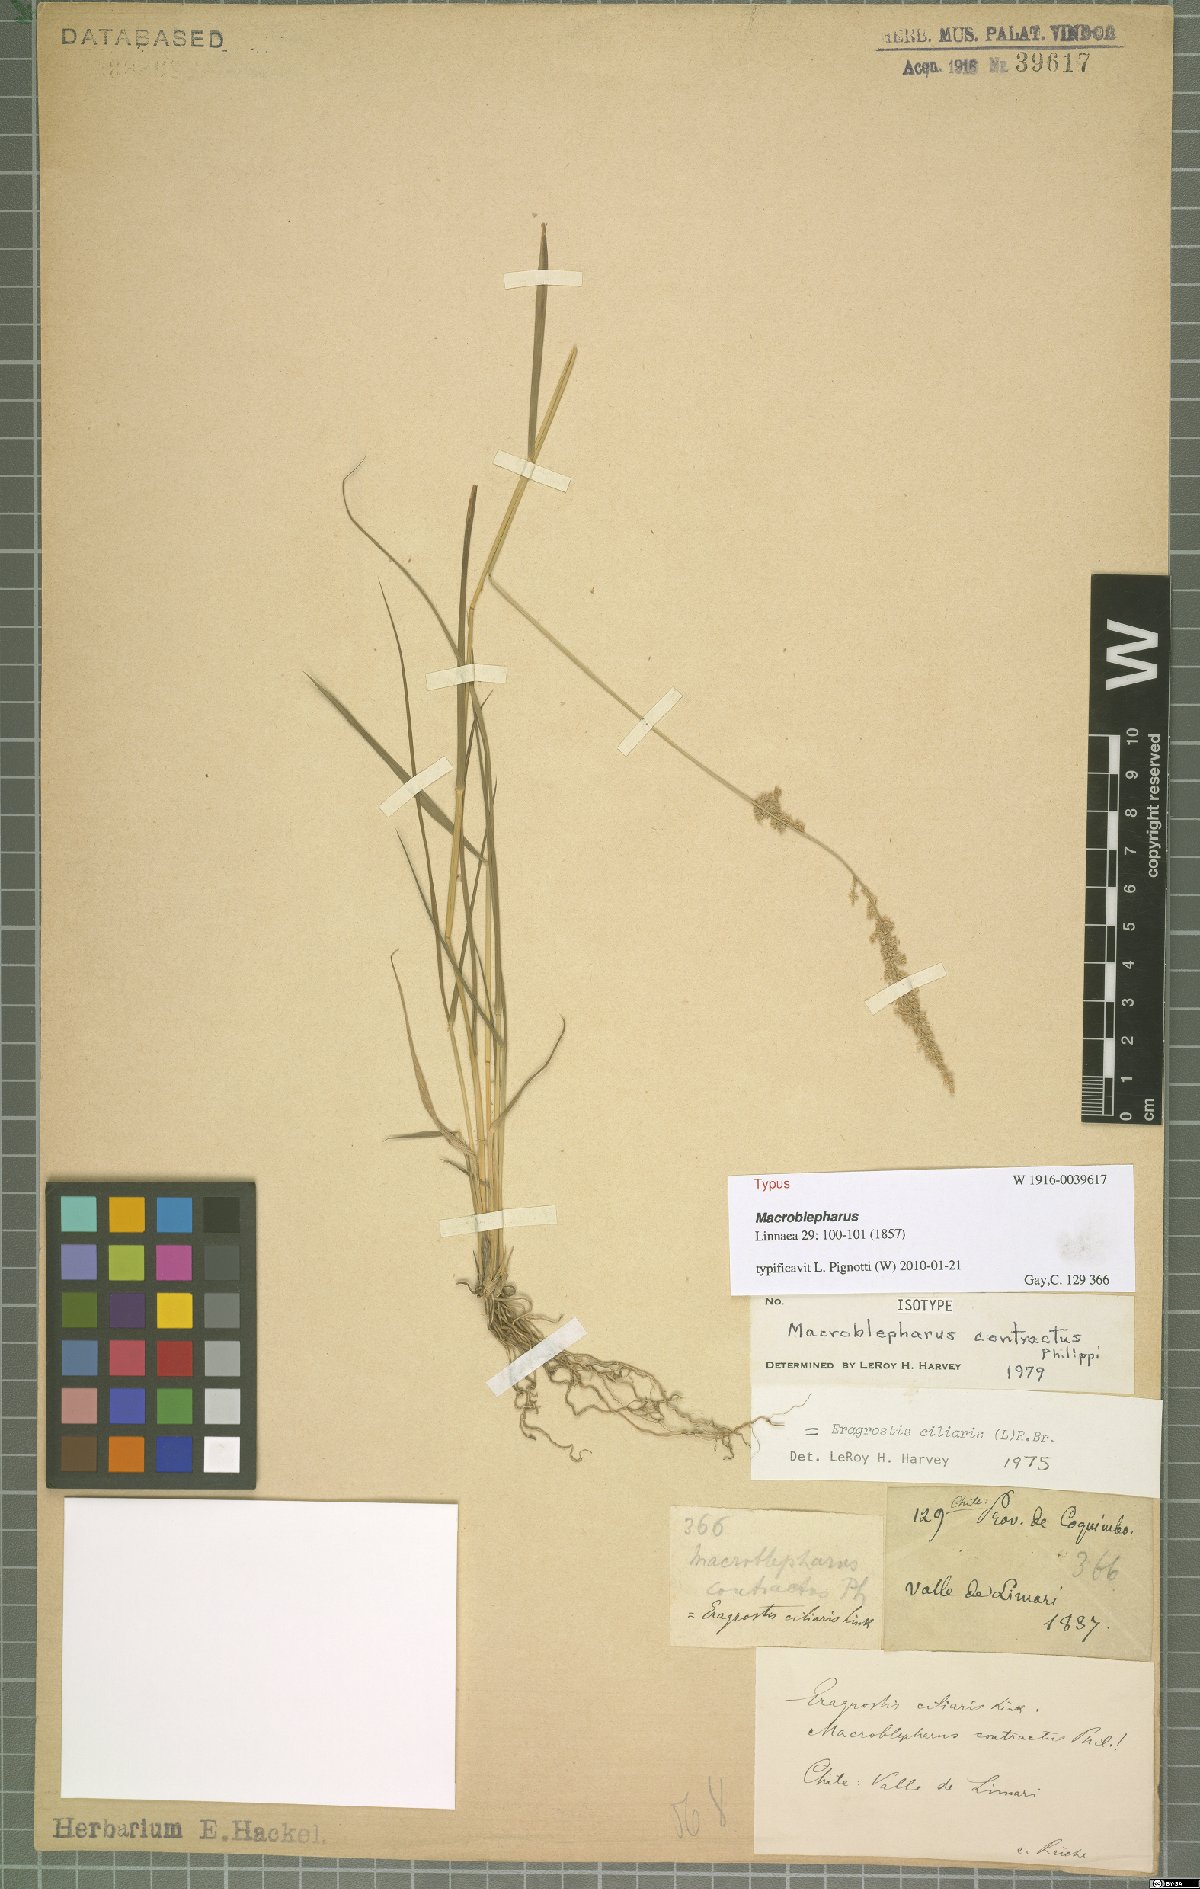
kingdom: Plantae
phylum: Tracheophyta
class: Liliopsida
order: Poales
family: Poaceae
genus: Eragrostis
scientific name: Eragrostis ciliaris
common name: Gophertail lovegrass
